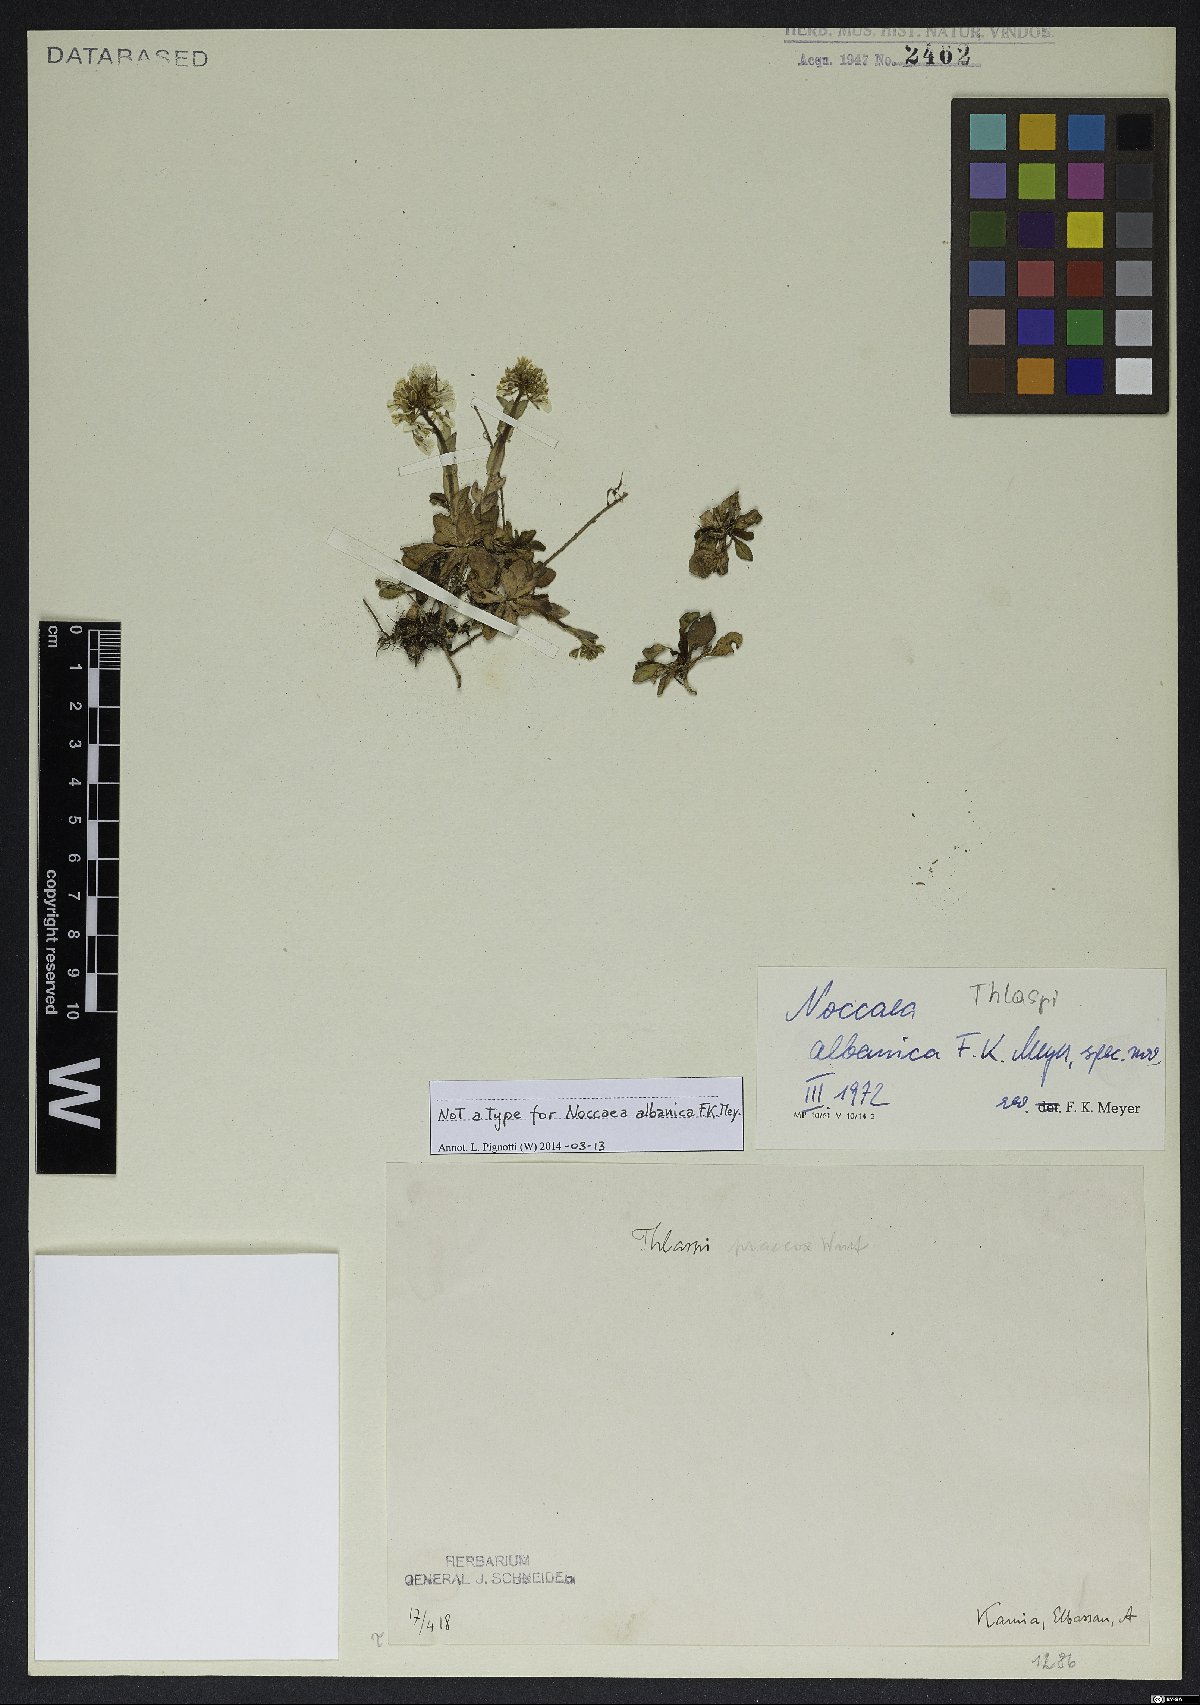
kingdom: Plantae
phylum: Tracheophyta
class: Magnoliopsida
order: Brassicales
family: Brassicaceae
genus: Noccaea
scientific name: Noccaea albanica
